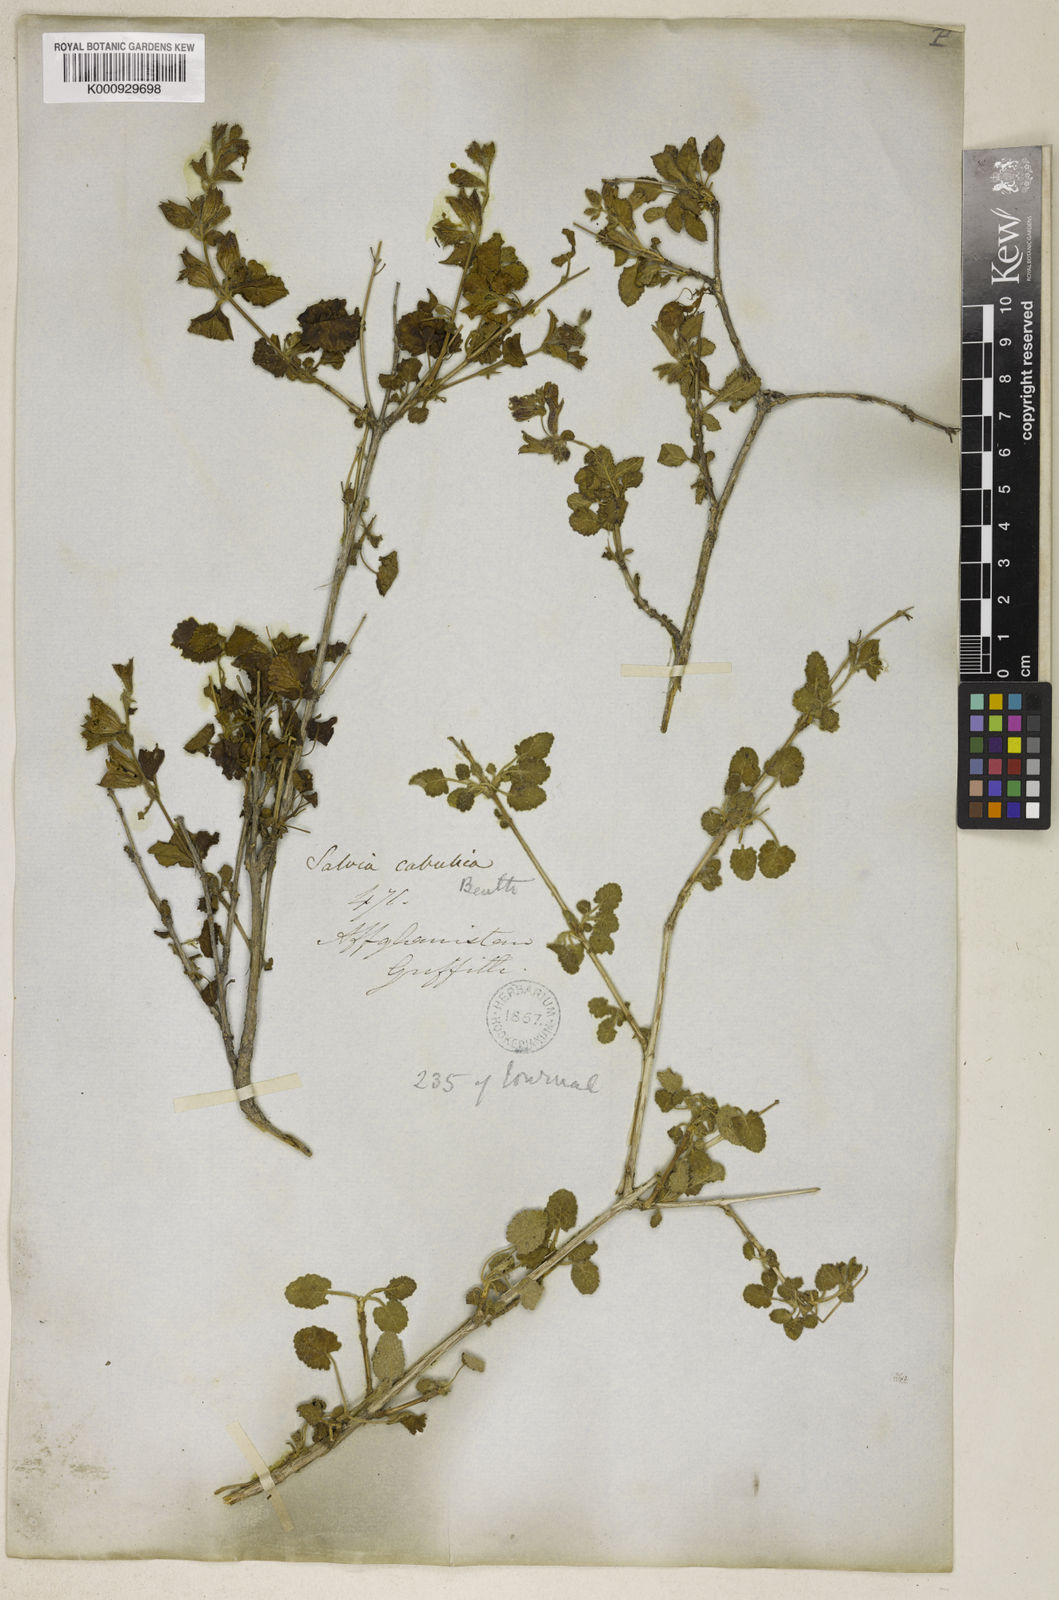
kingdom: Plantae
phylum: Tracheophyta
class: Magnoliopsida
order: Lamiales
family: Lamiaceae
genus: Salvia
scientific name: Salvia cabulica
